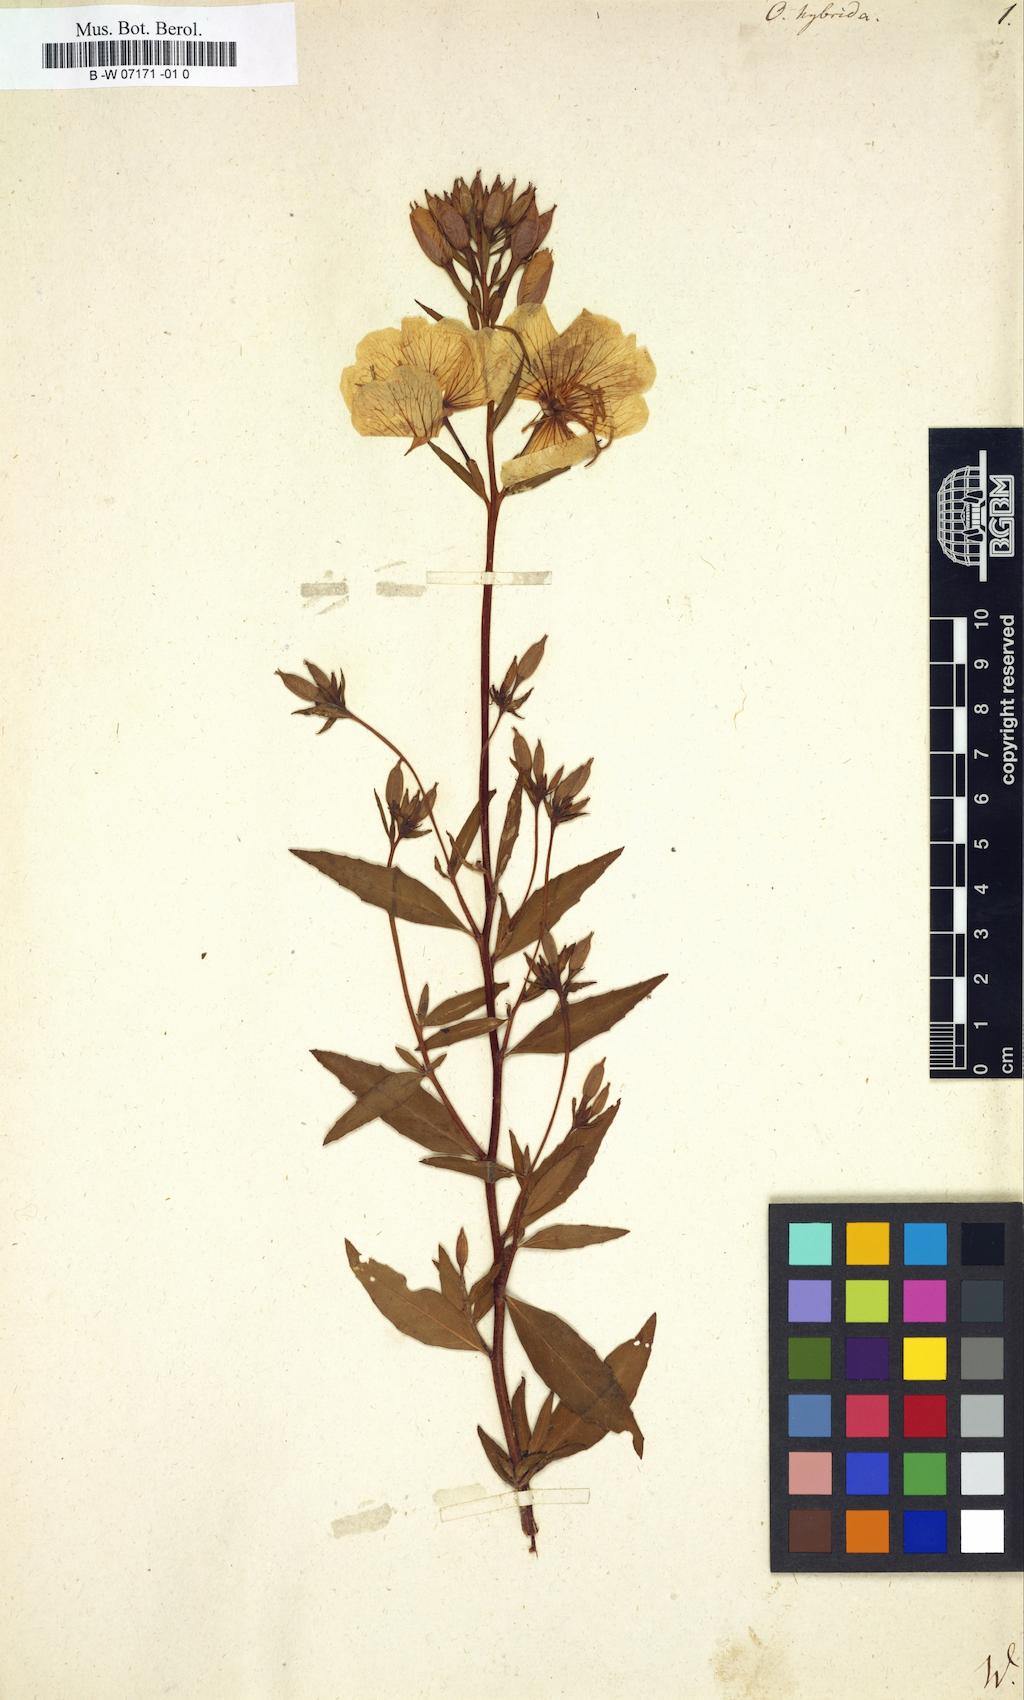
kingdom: Plantae
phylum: Tracheophyta
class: Magnoliopsida
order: Myrtales
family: Onagraceae
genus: Oenothera
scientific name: Oenothera tetragona
